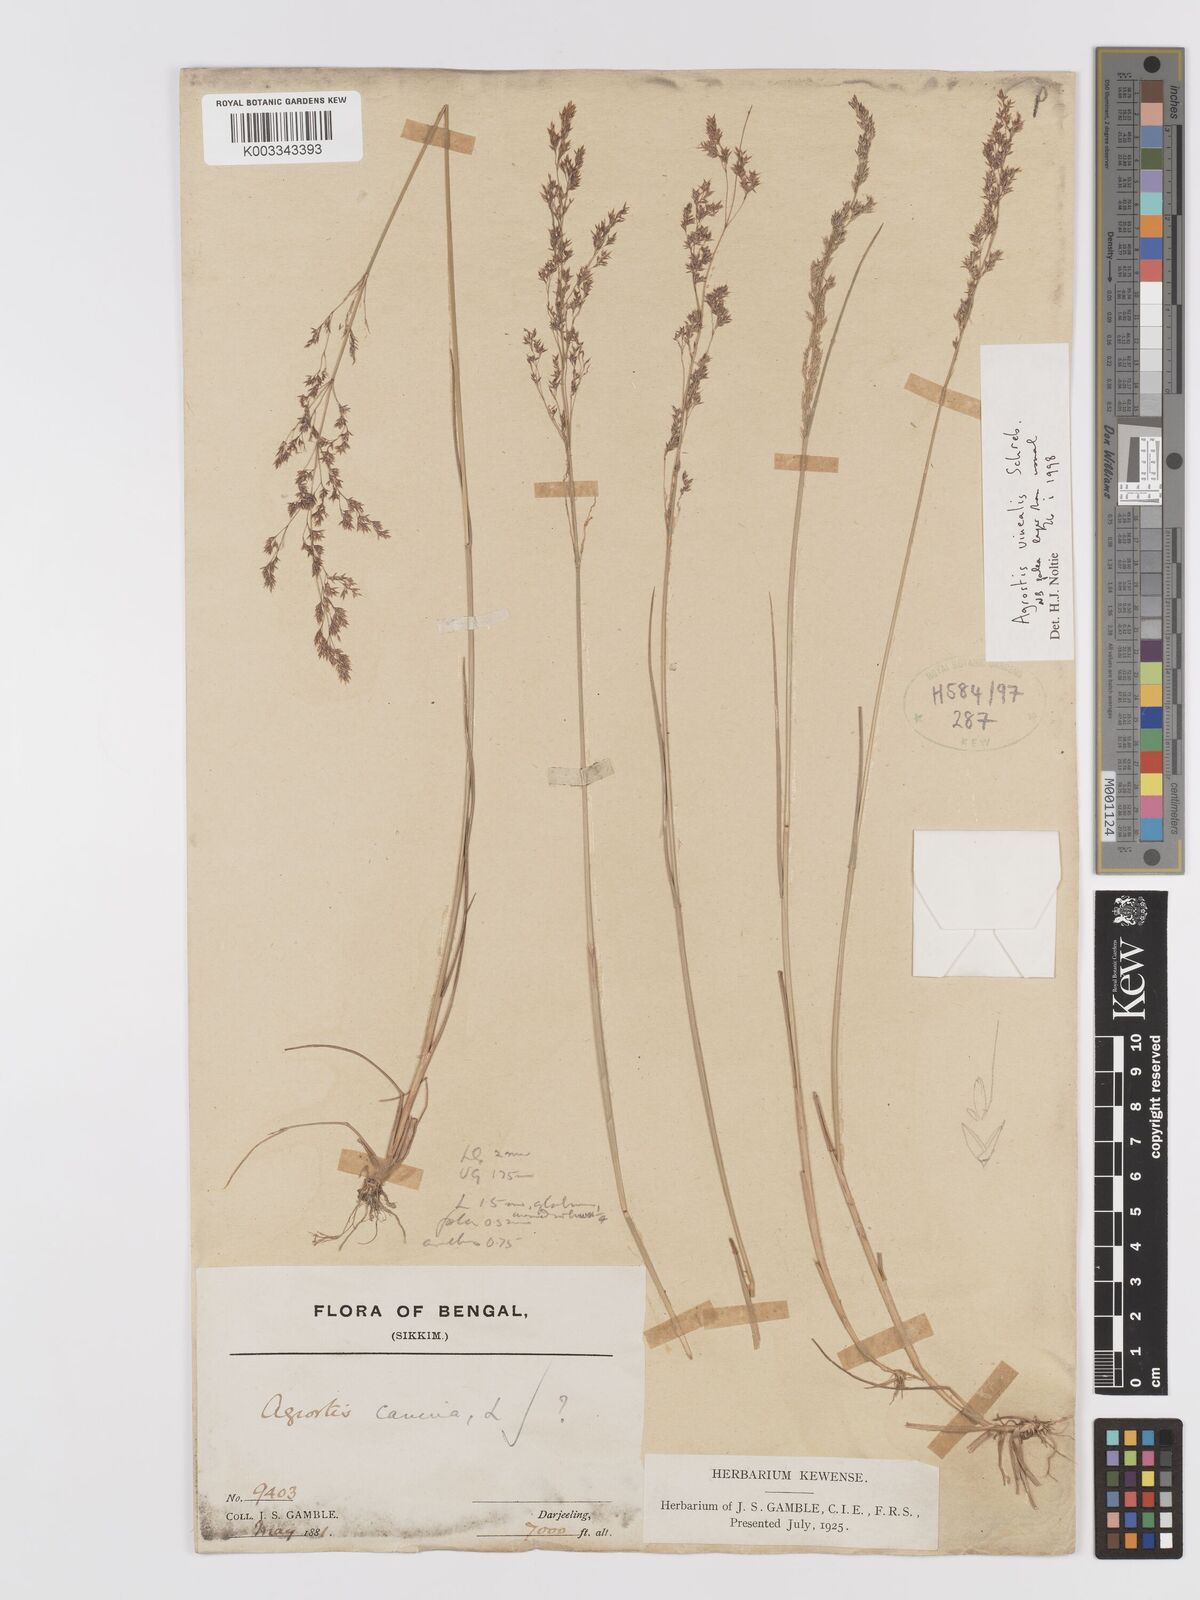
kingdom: Plantae
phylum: Tracheophyta
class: Liliopsida
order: Poales
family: Poaceae
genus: Agrostis
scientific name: Agrostis vinealis
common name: Brown bent
